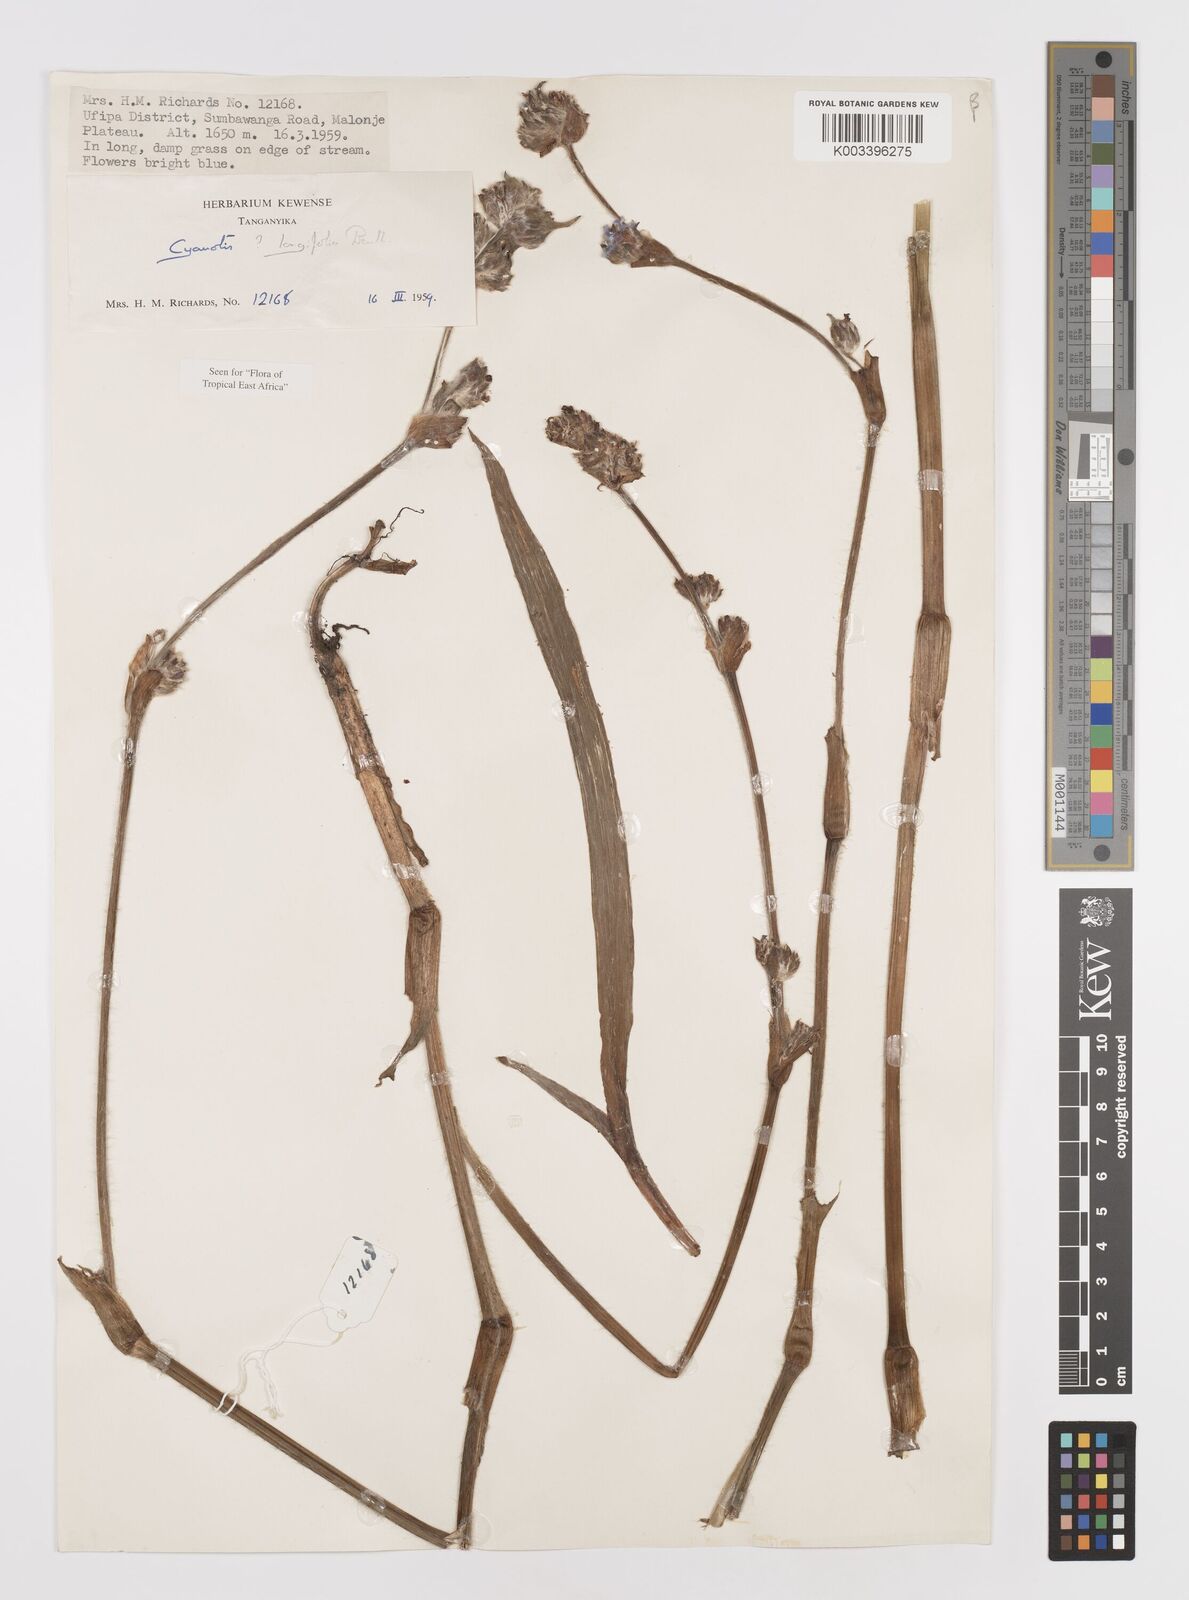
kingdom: Plantae
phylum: Tracheophyta
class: Liliopsida
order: Commelinales
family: Commelinaceae
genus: Cyanotis
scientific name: Cyanotis longifolia
